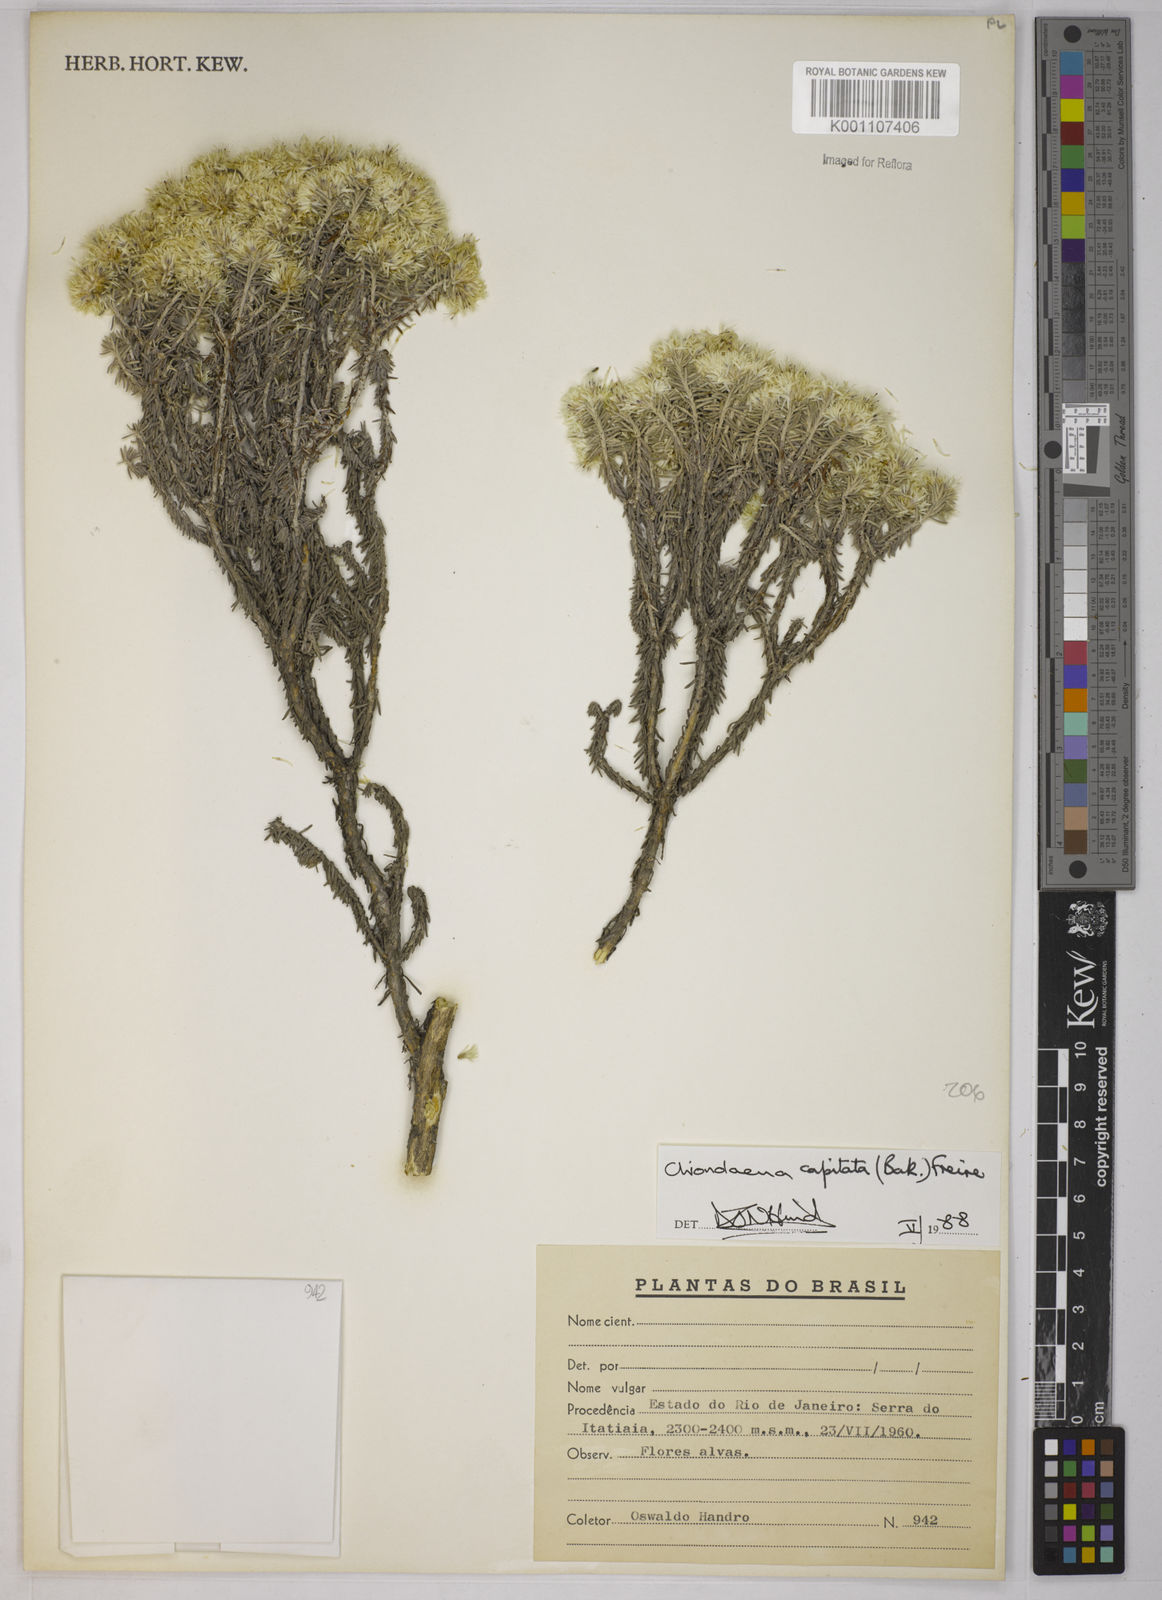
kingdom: Plantae
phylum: Tracheophyta
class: Magnoliopsida
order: Asterales
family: Asteraceae
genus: Chionolaena
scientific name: Chionolaena capitata
